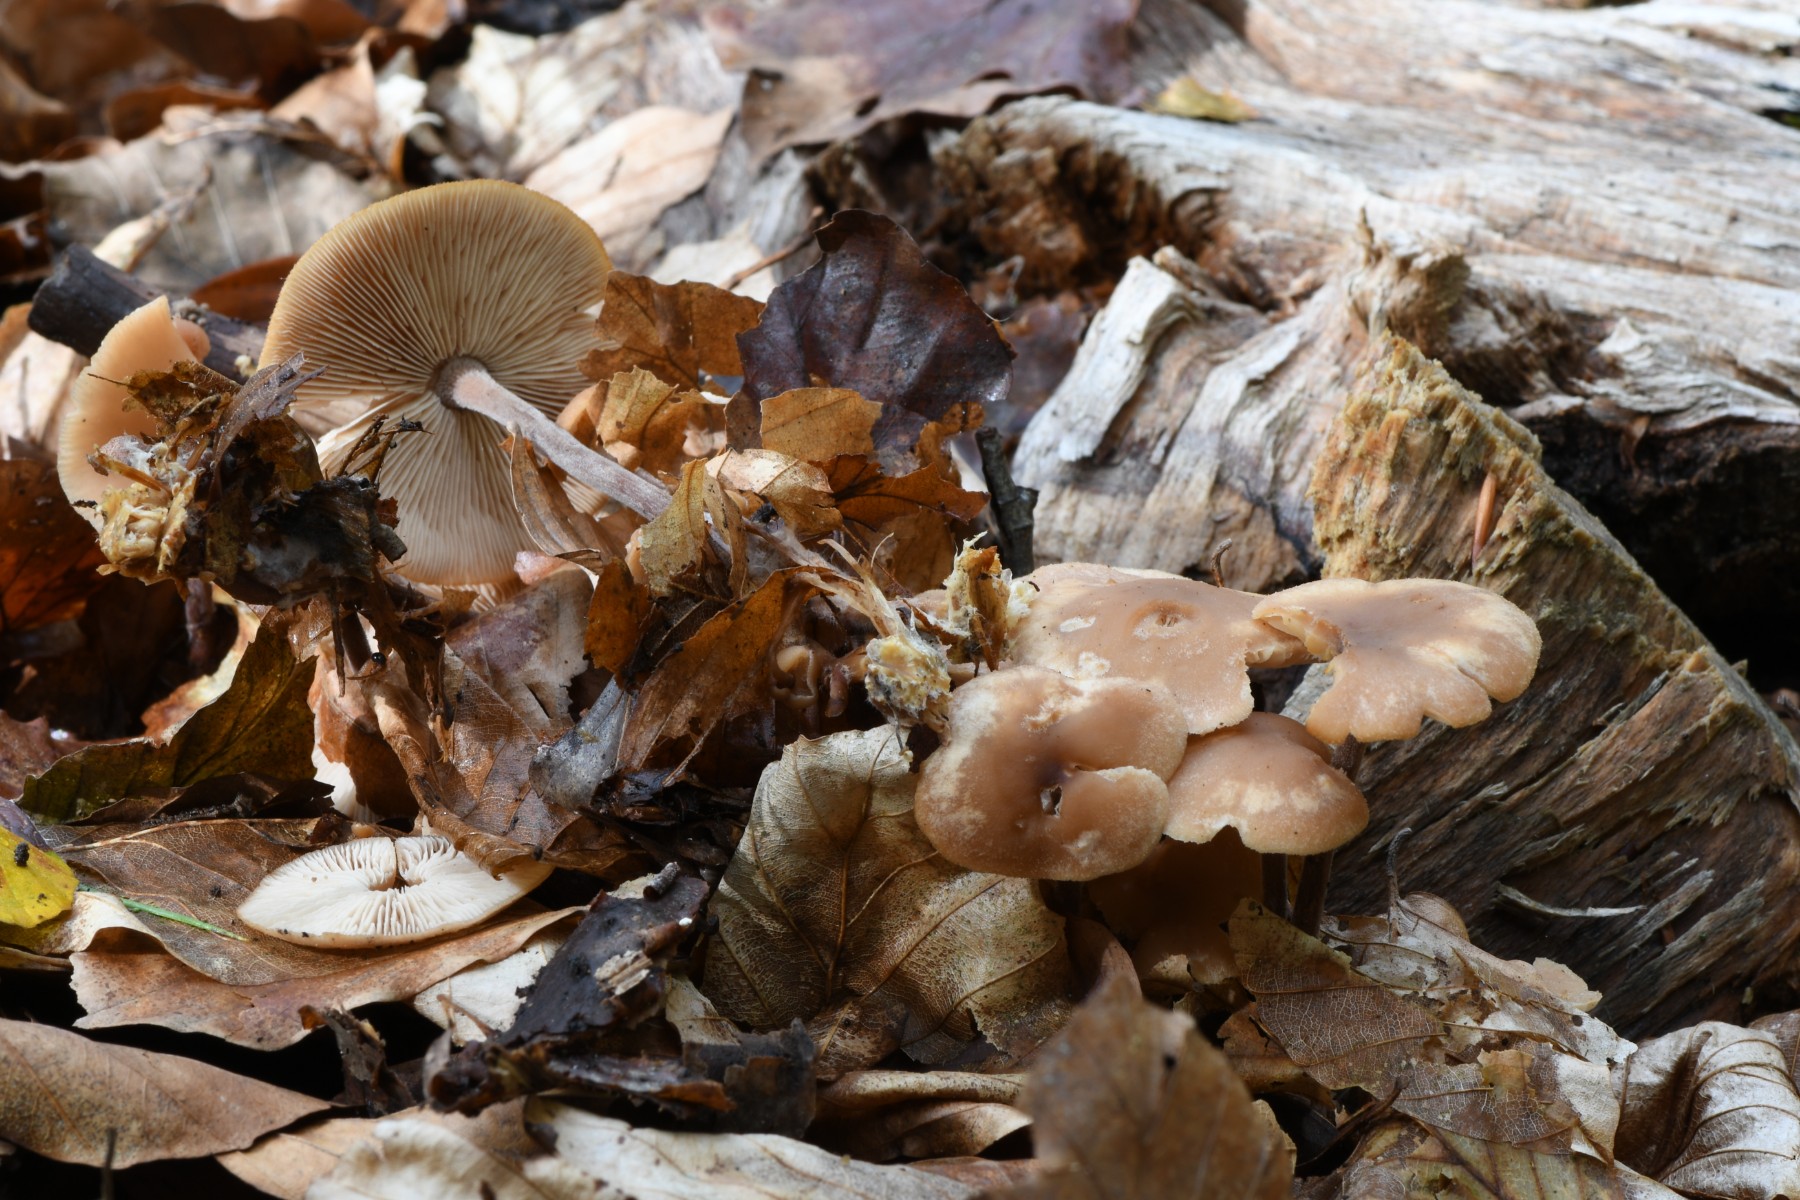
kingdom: Fungi
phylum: Basidiomycota
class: Agaricomycetes
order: Agaricales
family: Omphalotaceae
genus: Collybiopsis
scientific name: Collybiopsis confluens
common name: knippe-fladhat
